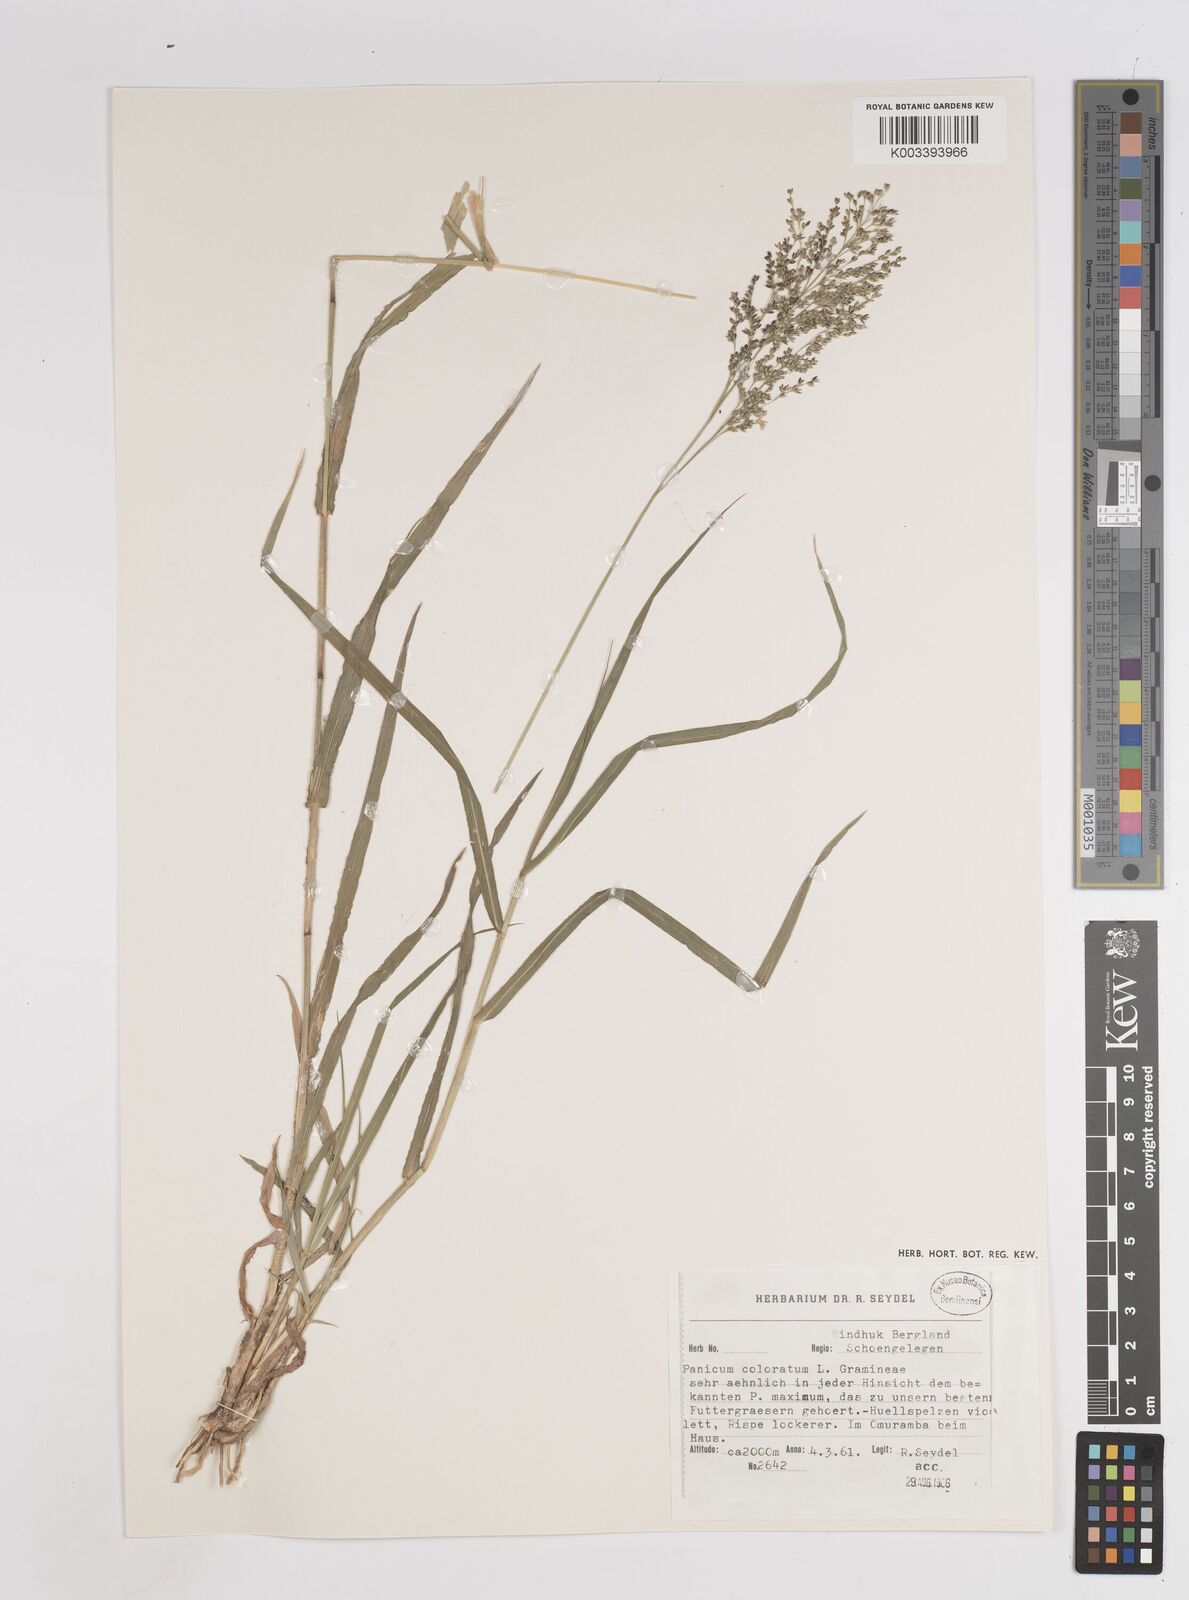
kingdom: Plantae
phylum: Tracheophyta
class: Liliopsida
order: Poales
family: Poaceae
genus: Panicum
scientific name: Panicum coloratum
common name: Kleingrass
